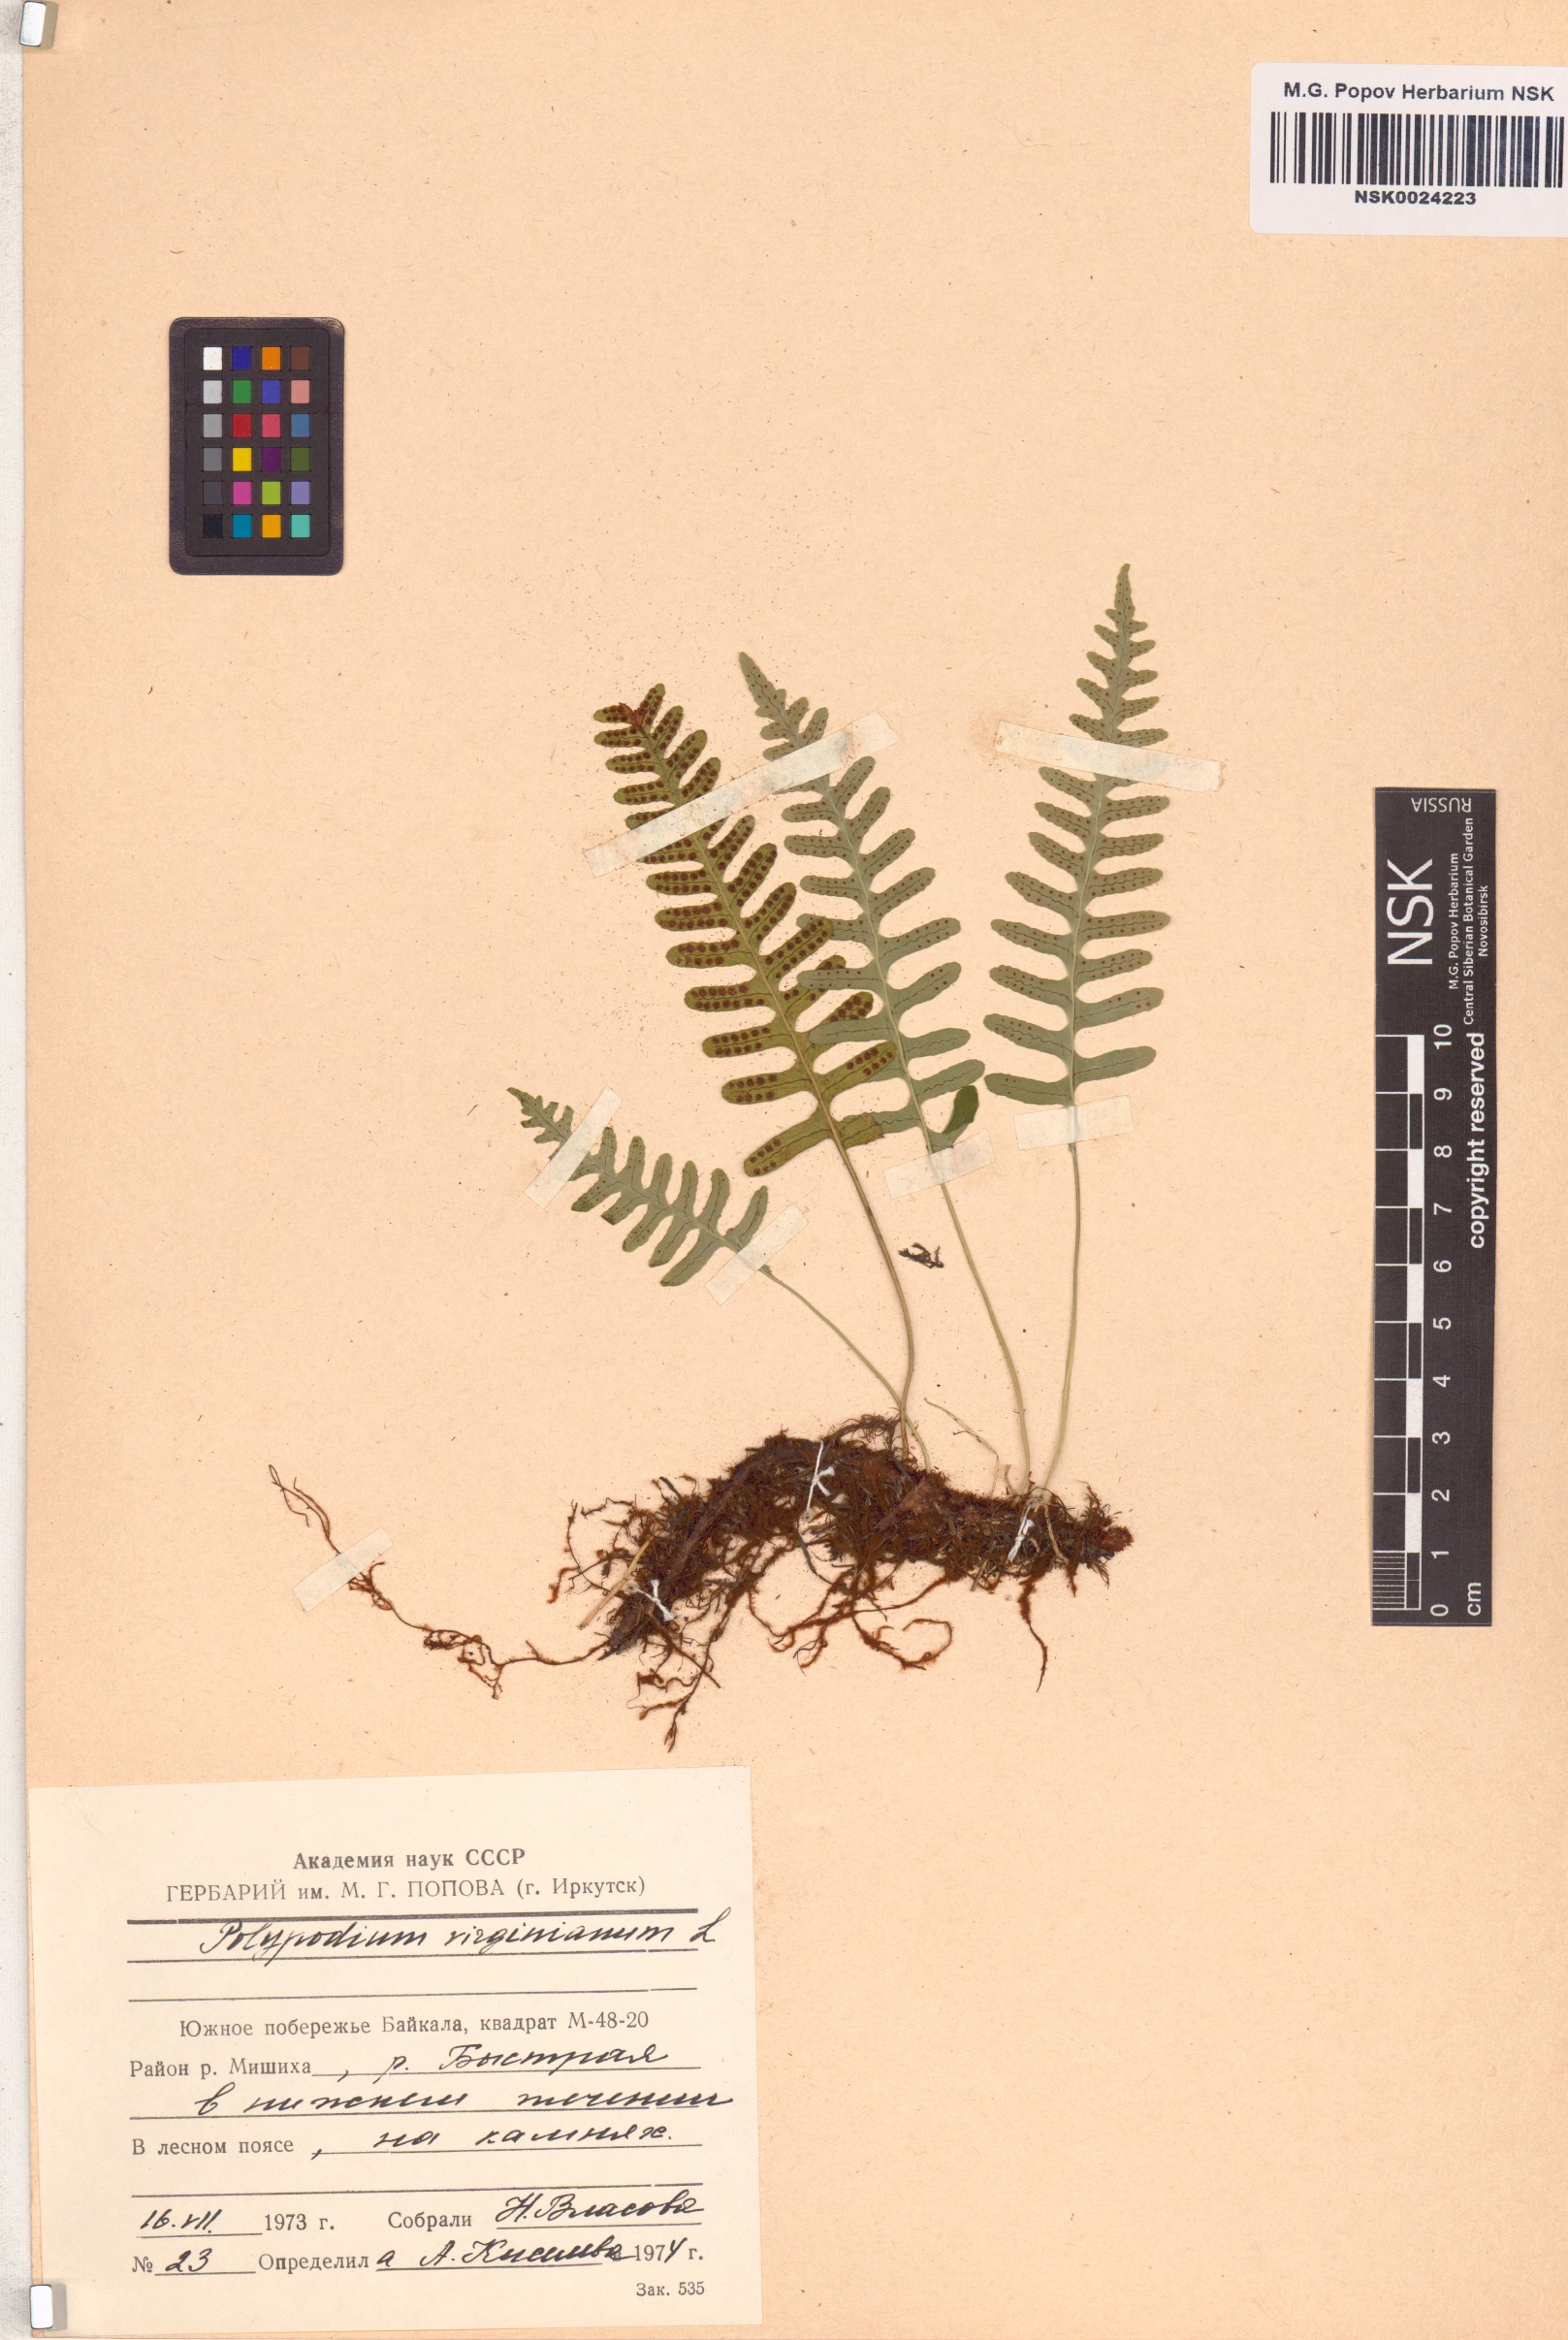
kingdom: Plantae
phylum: Tracheophyta
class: Polypodiopsida
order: Polypodiales
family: Polypodiaceae
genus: Polypodium
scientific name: Polypodium virginianum
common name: American wall fern
